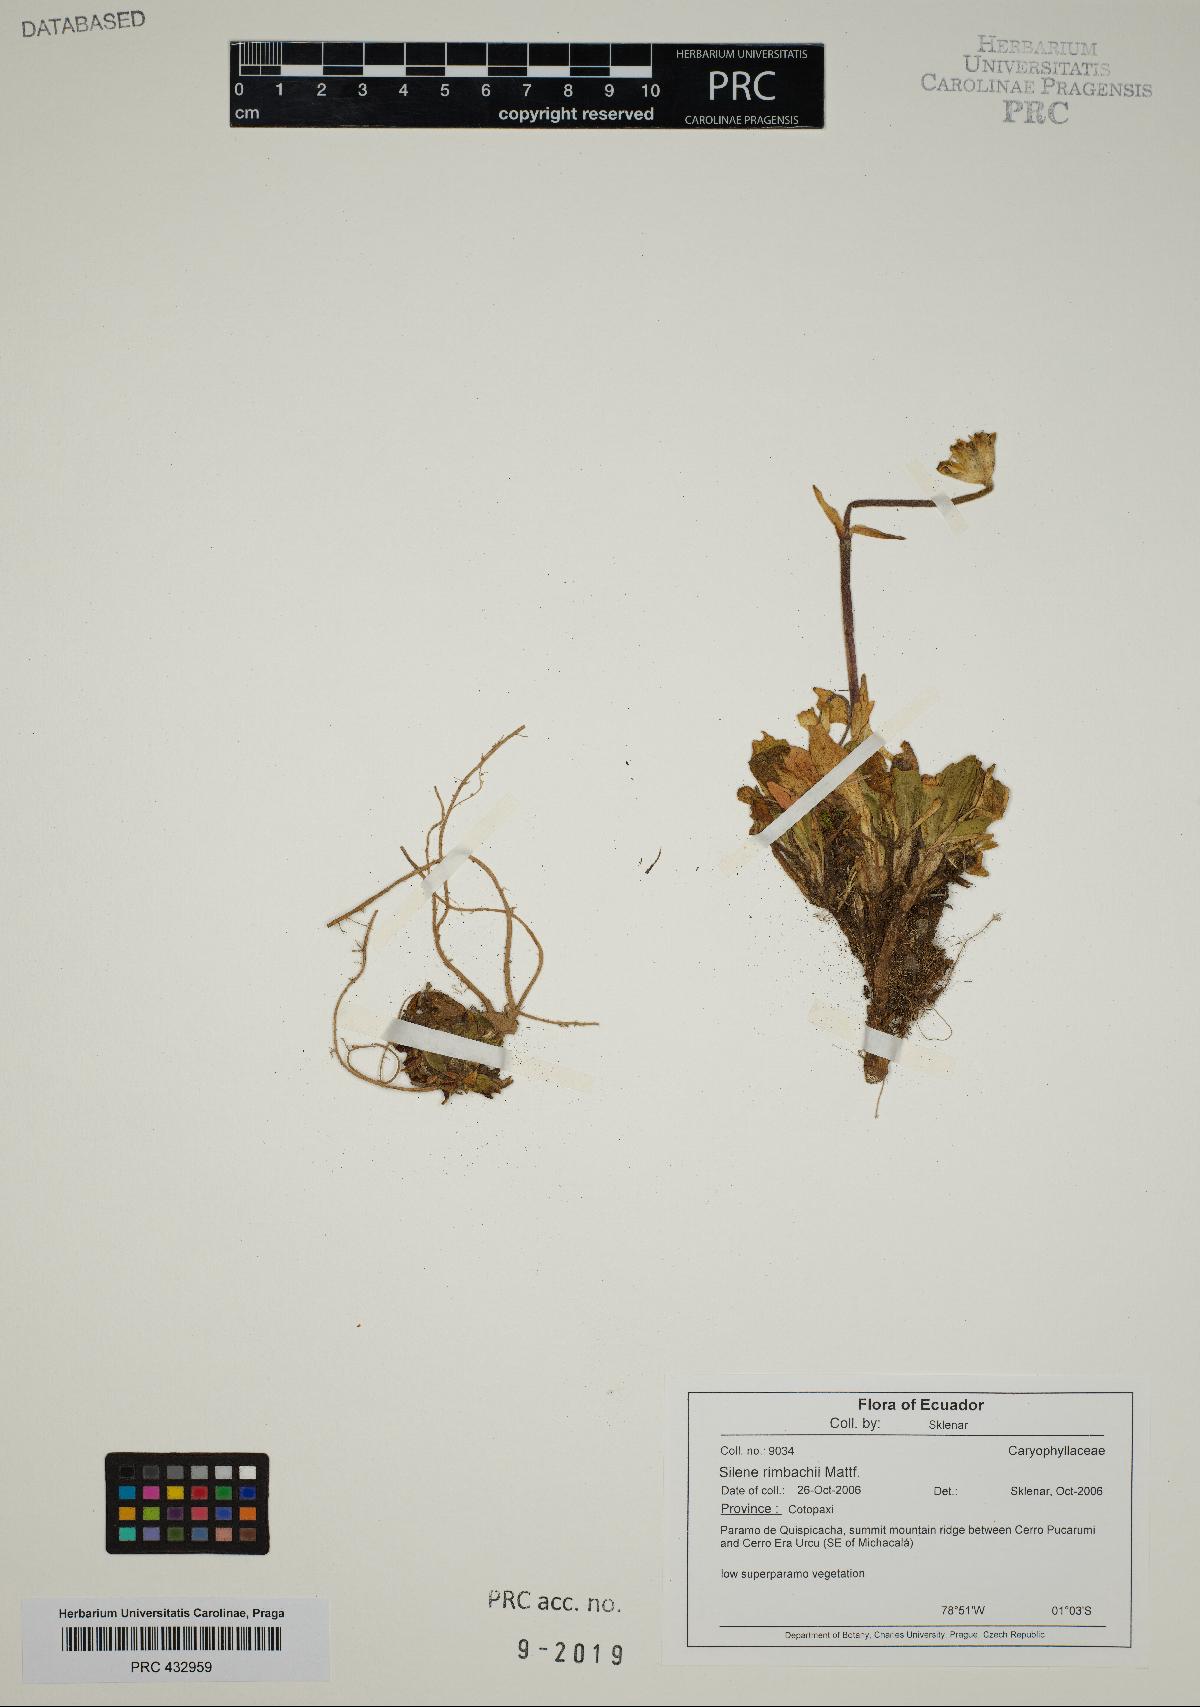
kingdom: Plantae
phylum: Tracheophyta
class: Magnoliopsida
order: Caryophyllales
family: Caryophyllaceae
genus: Silene
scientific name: Silene
